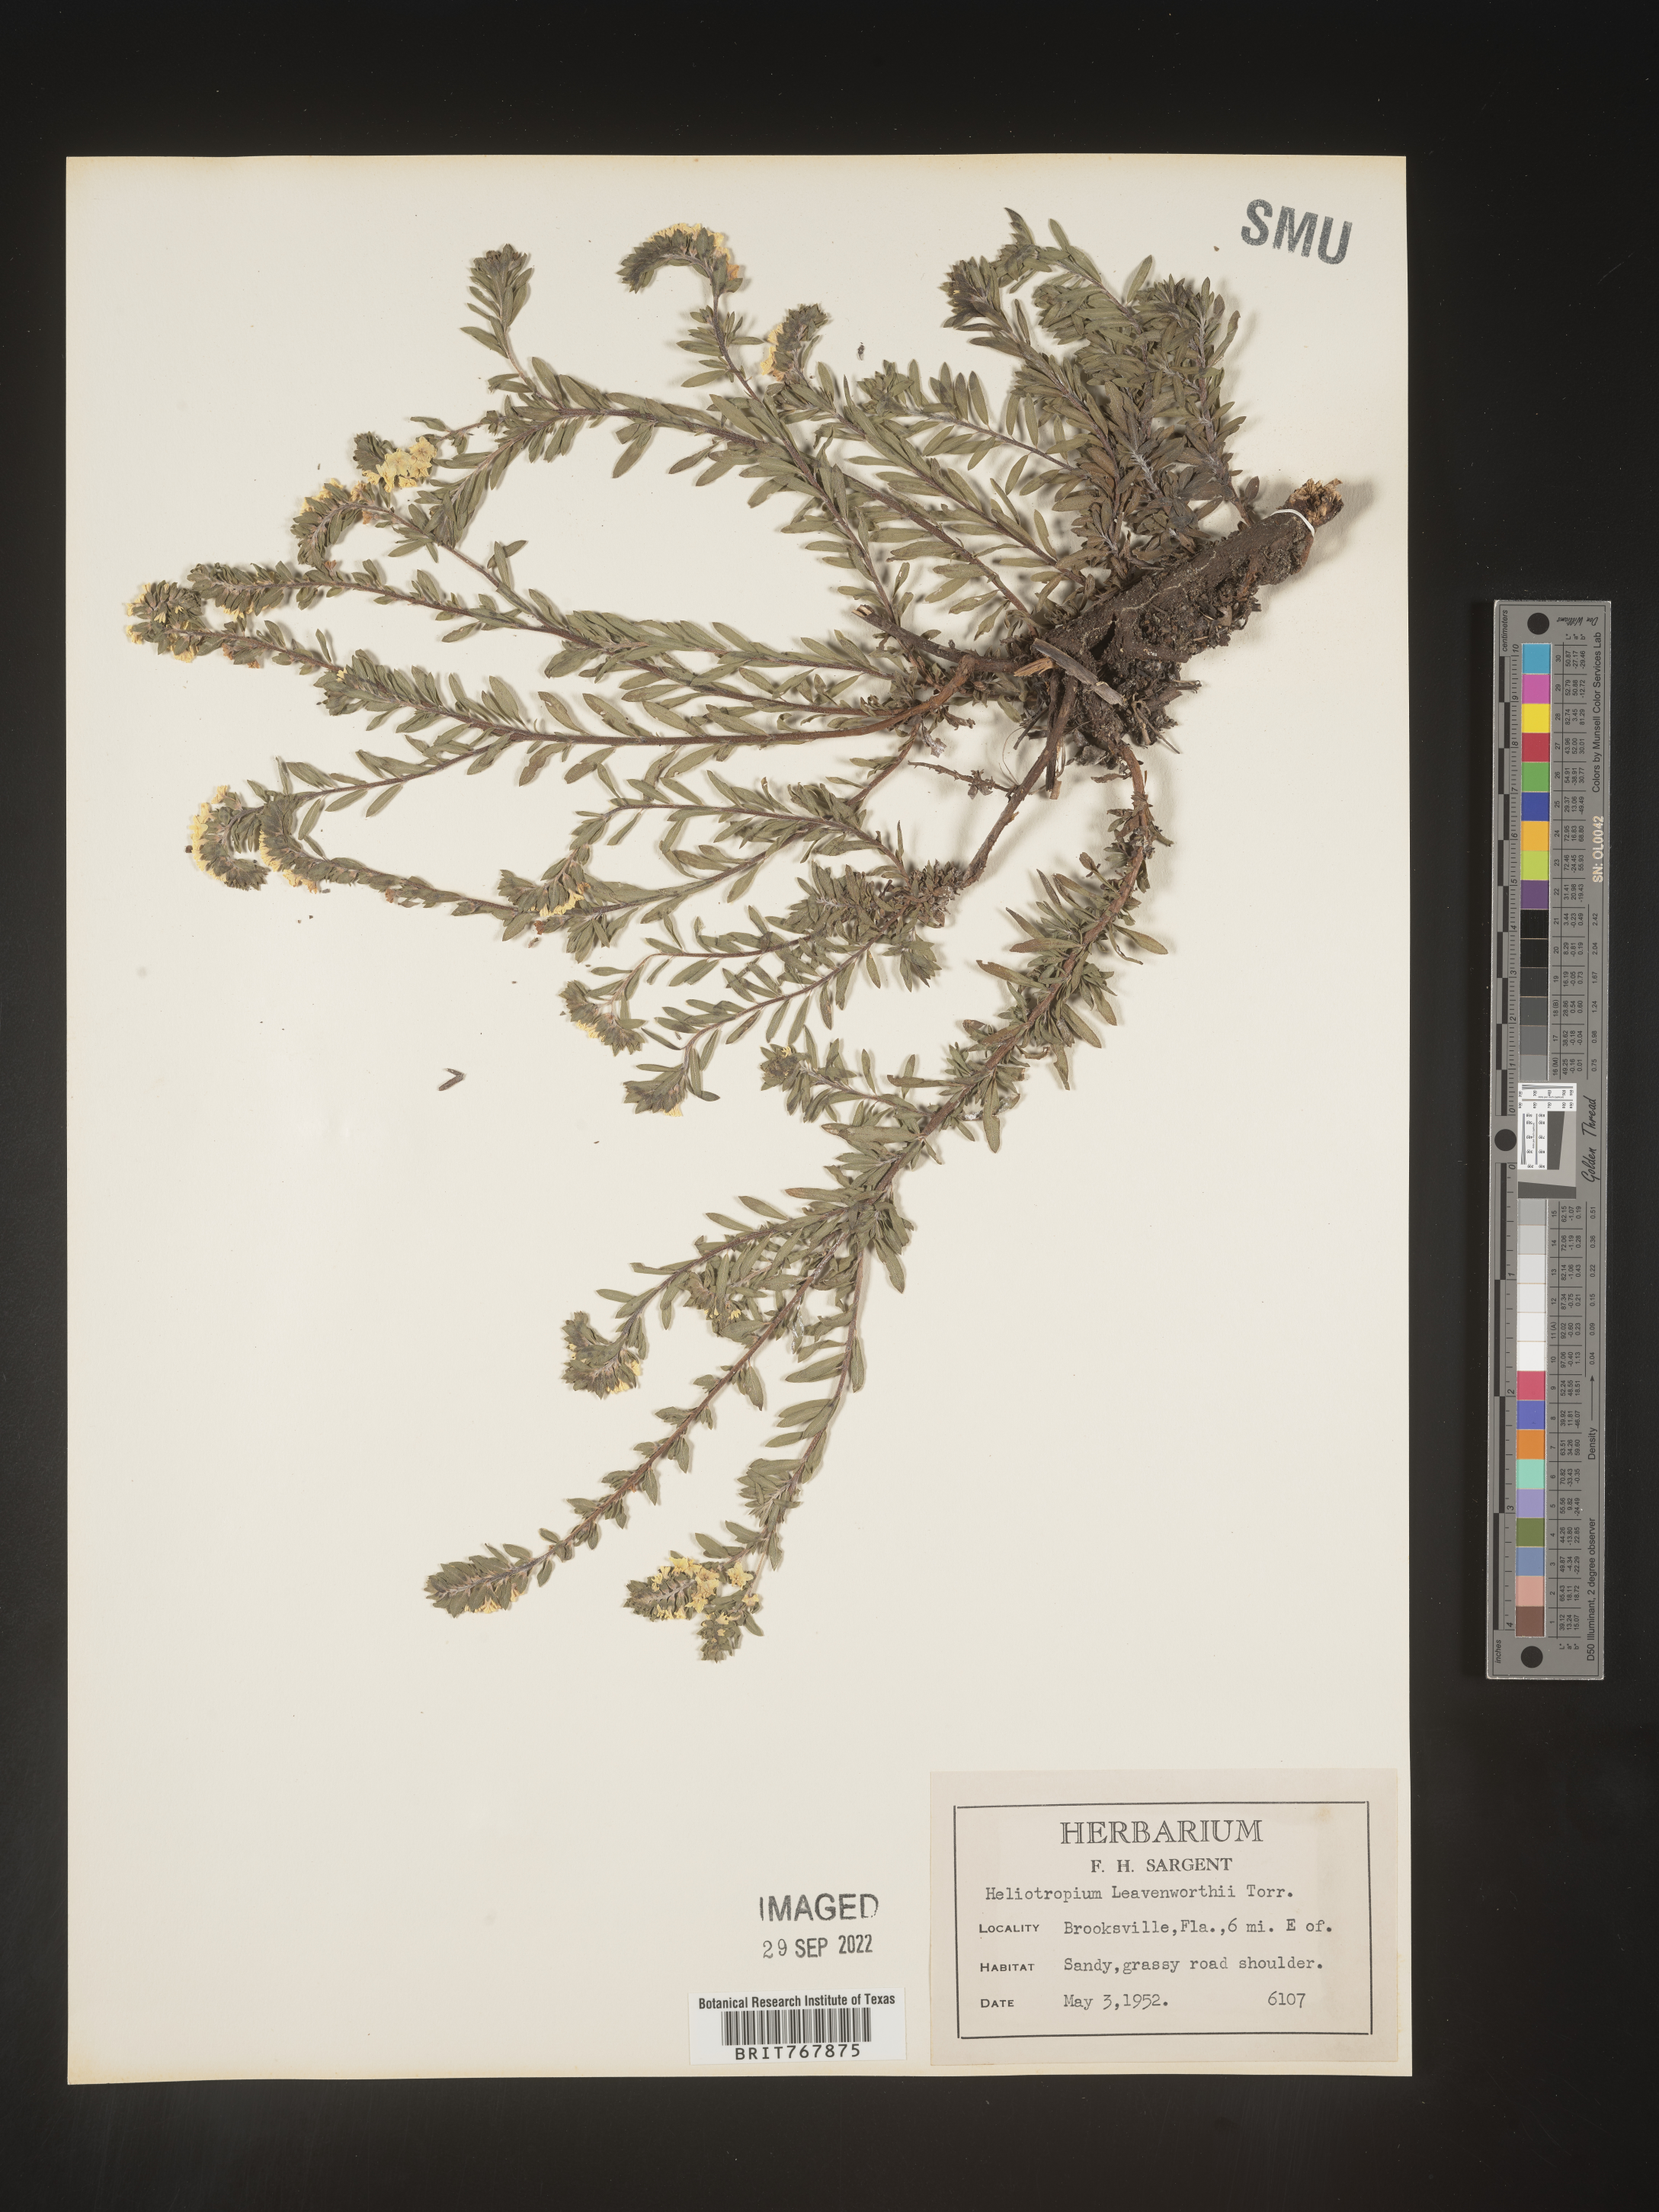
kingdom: Plantae
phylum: Tracheophyta
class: Magnoliopsida
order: Boraginales
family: Heliotropiaceae
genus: Heliotropium
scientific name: Heliotropium leavenworthii
